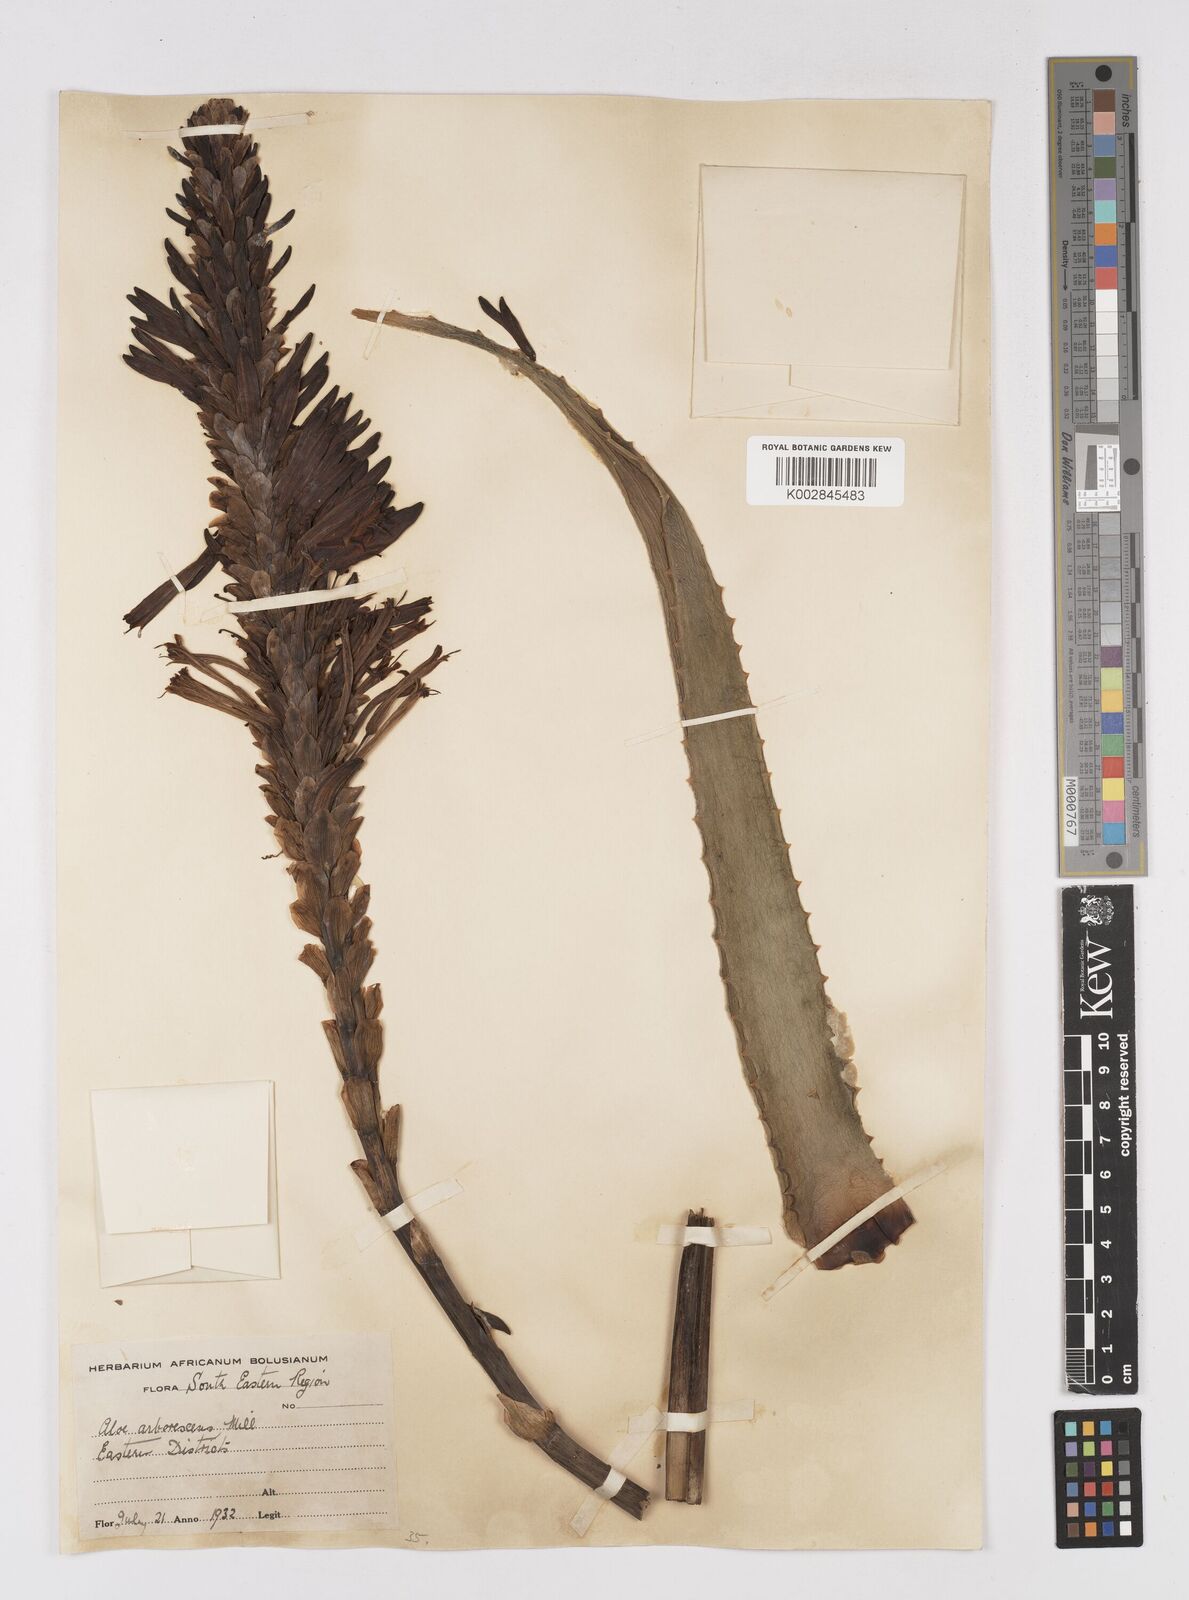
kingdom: Plantae
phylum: Tracheophyta
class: Liliopsida
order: Asparagales
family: Asphodelaceae
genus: Aloe
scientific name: Aloe arborescens
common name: Candelabra aloe
